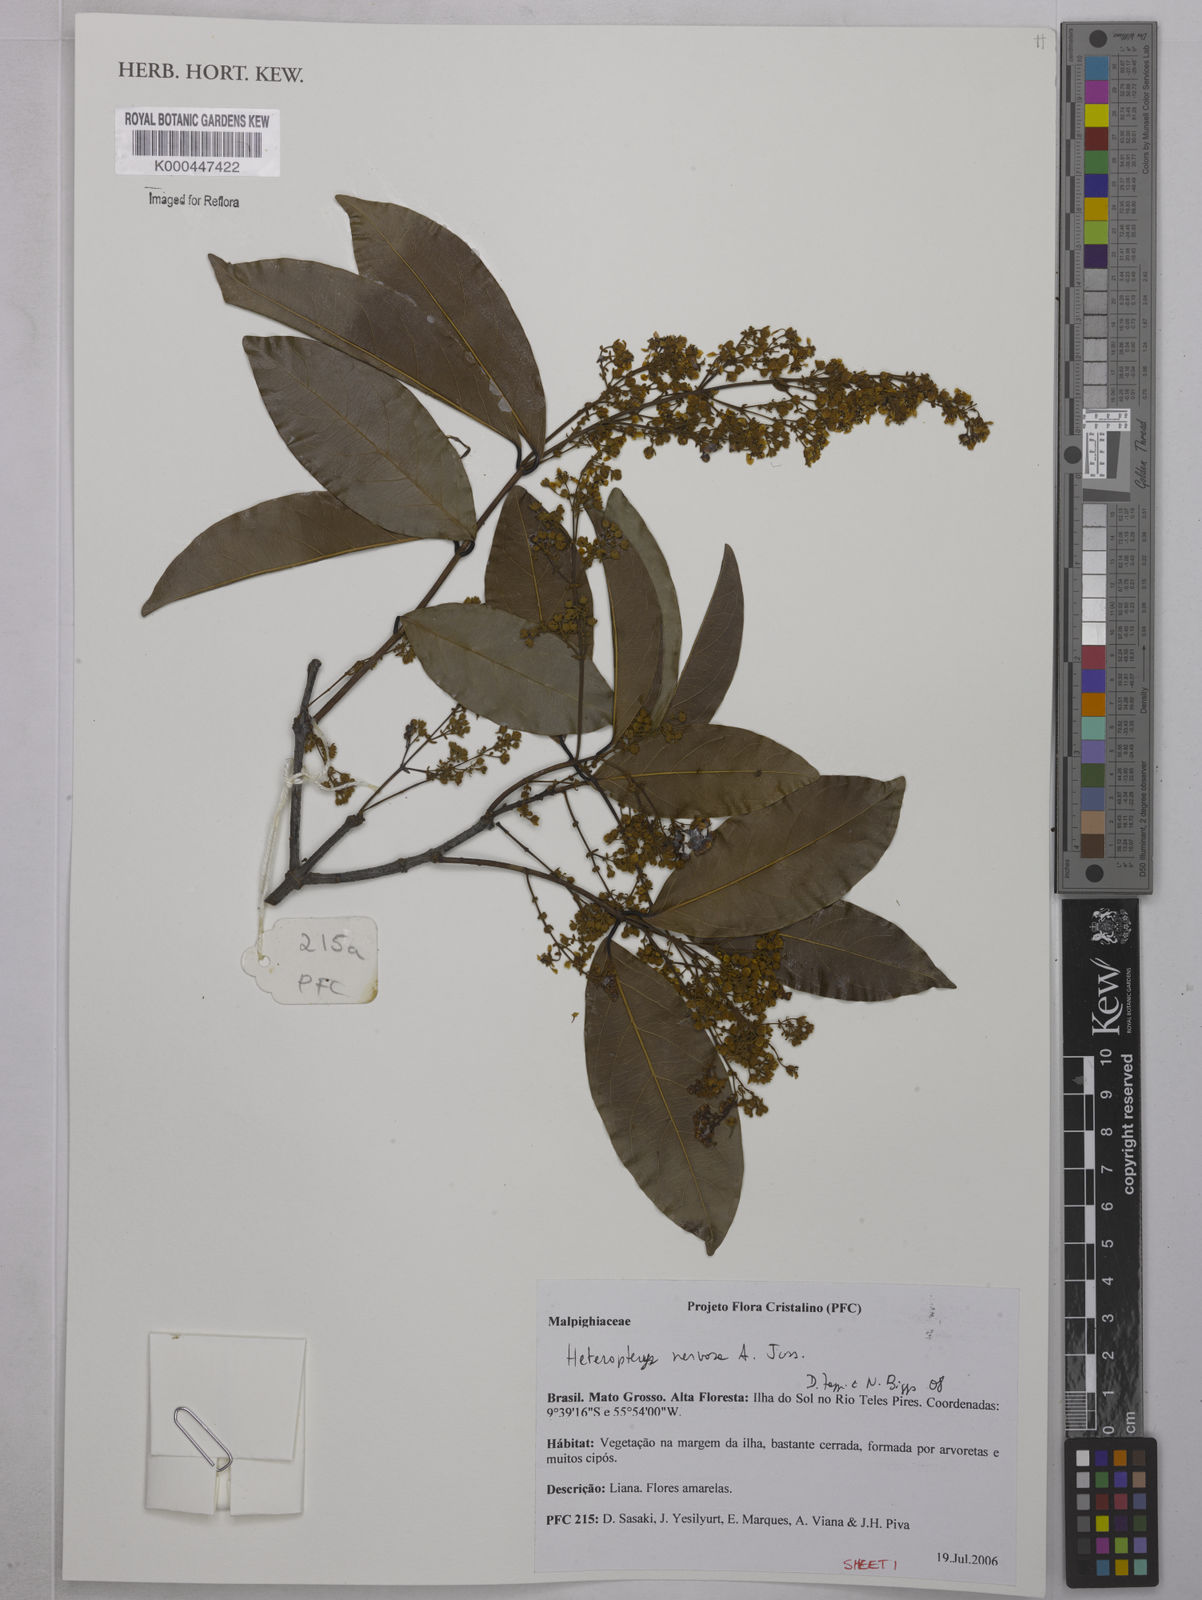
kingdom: Plantae
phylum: Tracheophyta
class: Magnoliopsida
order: Malpighiales
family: Malpighiaceae
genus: Heteropterys
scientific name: Heteropterys nervosa
